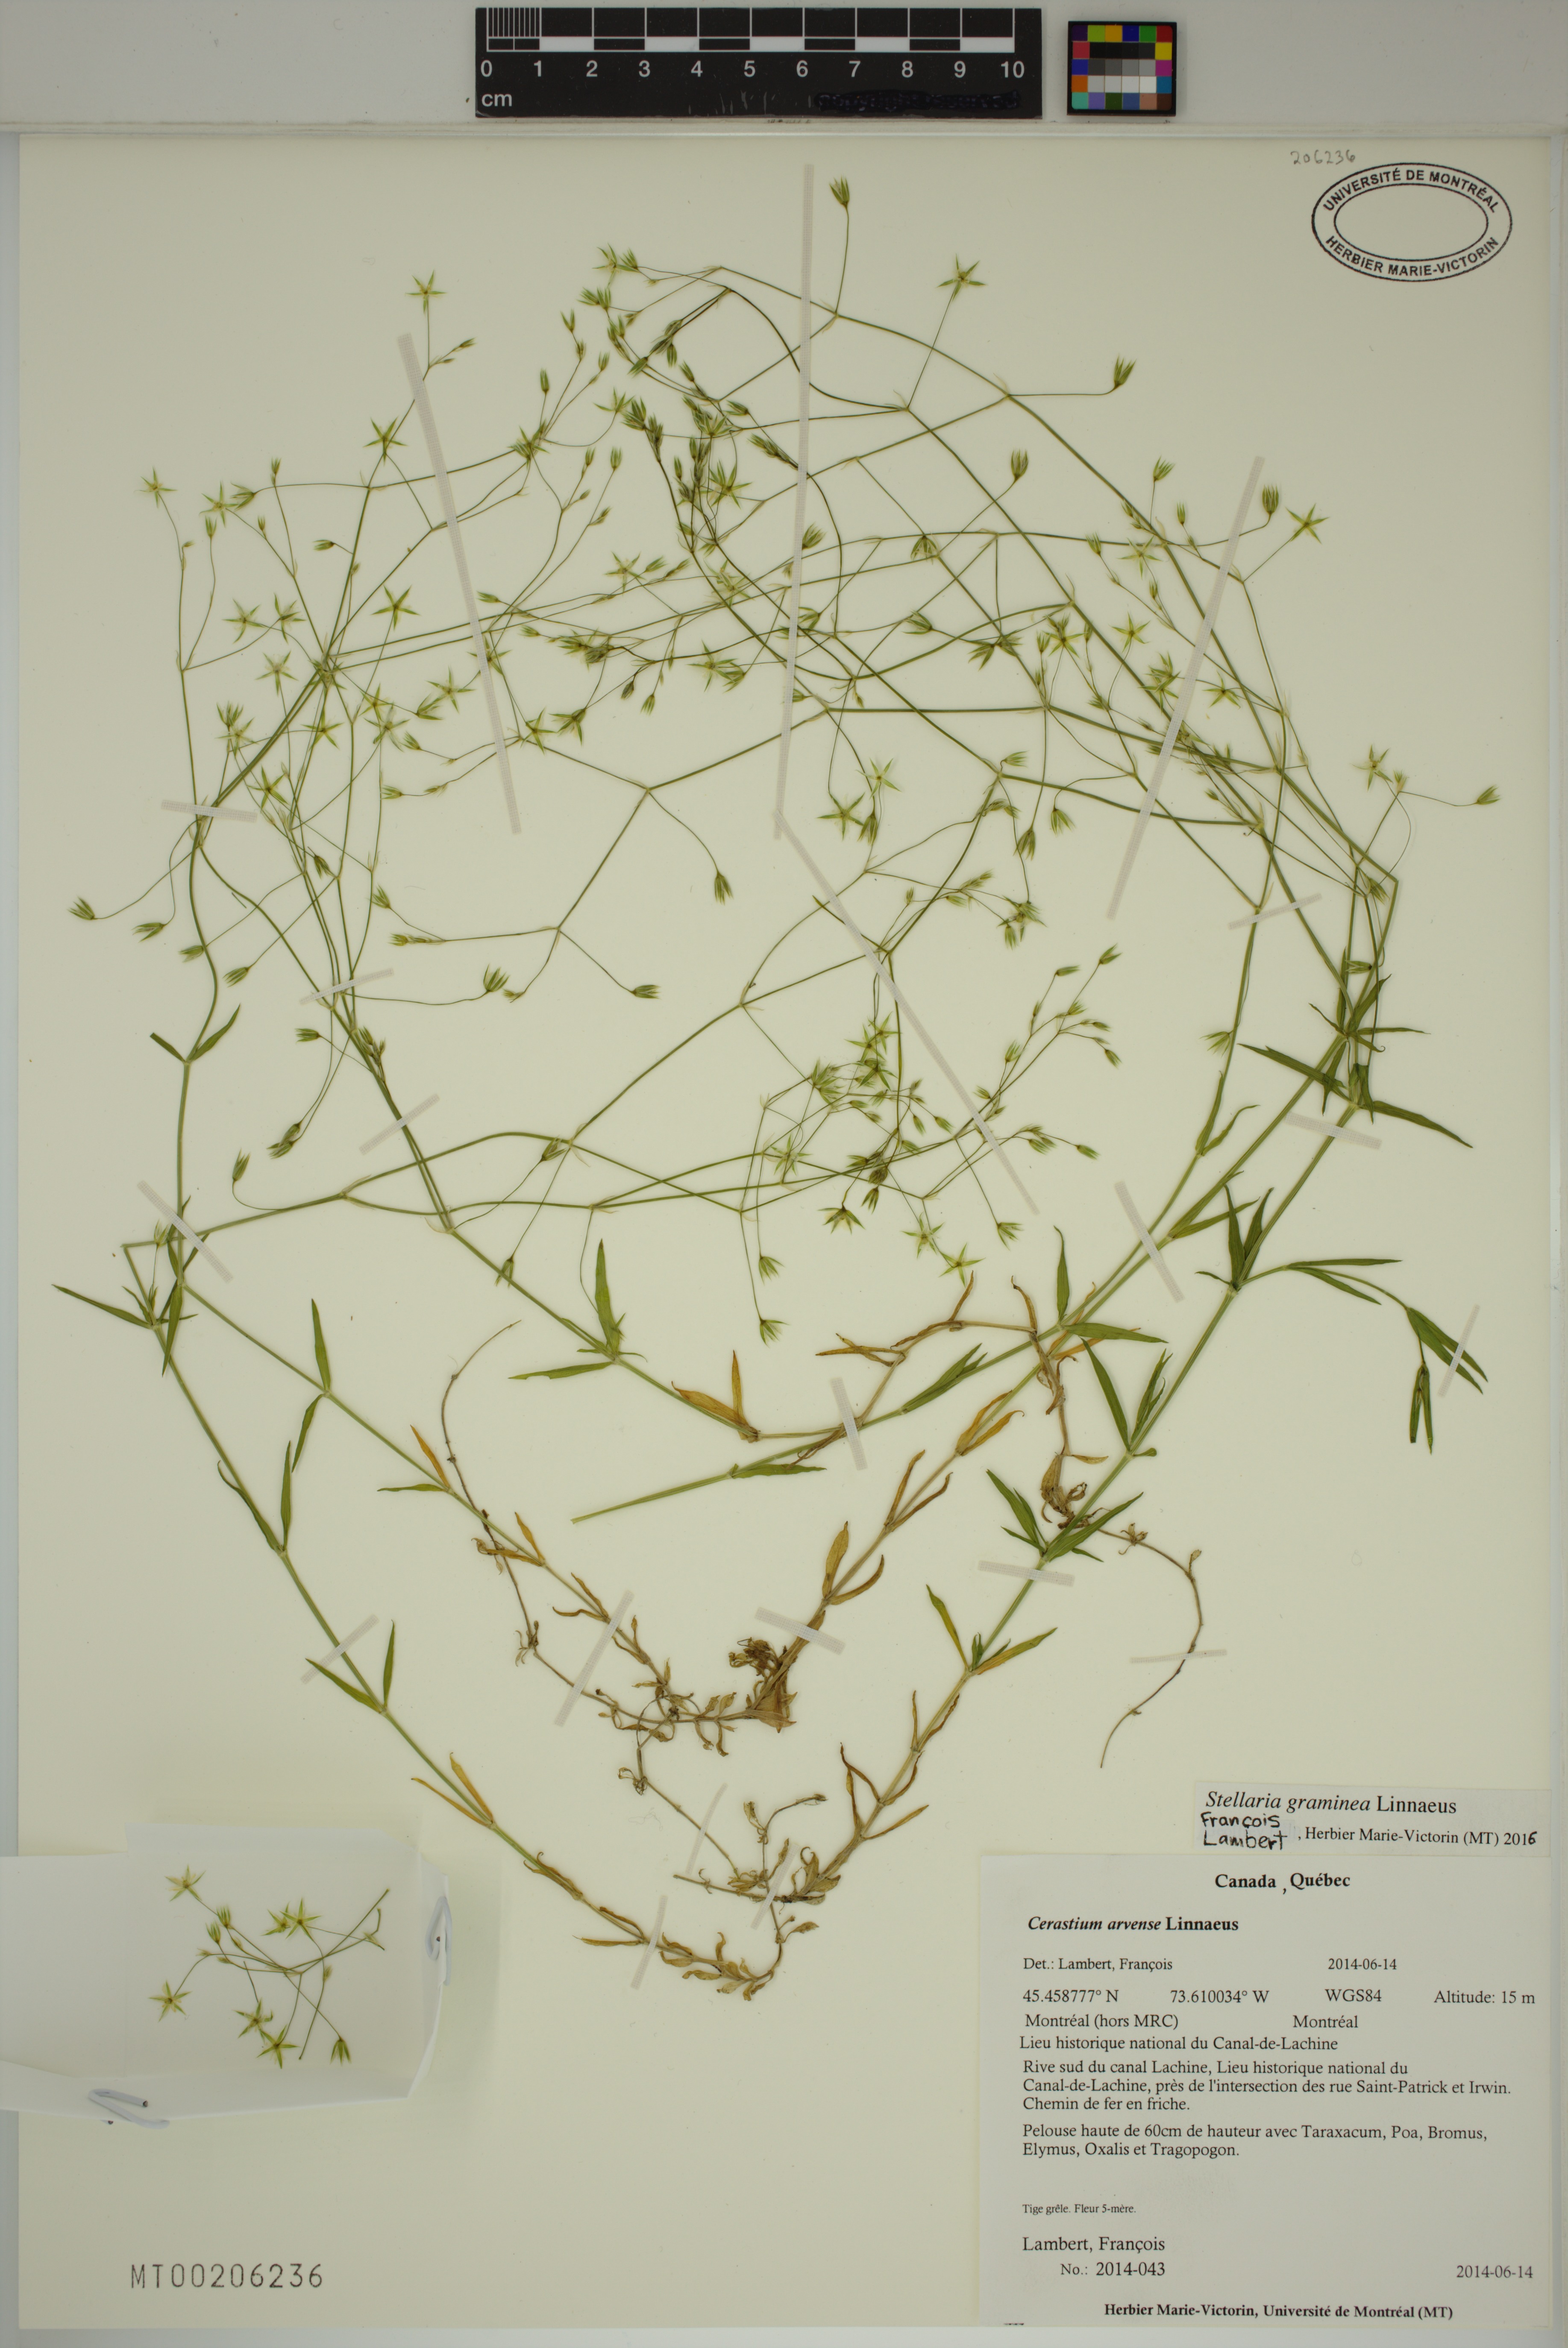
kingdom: Plantae
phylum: Tracheophyta
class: Magnoliopsida
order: Caryophyllales
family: Caryophyllaceae
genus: Stellaria
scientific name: Stellaria graminea
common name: Grass-like starwort
